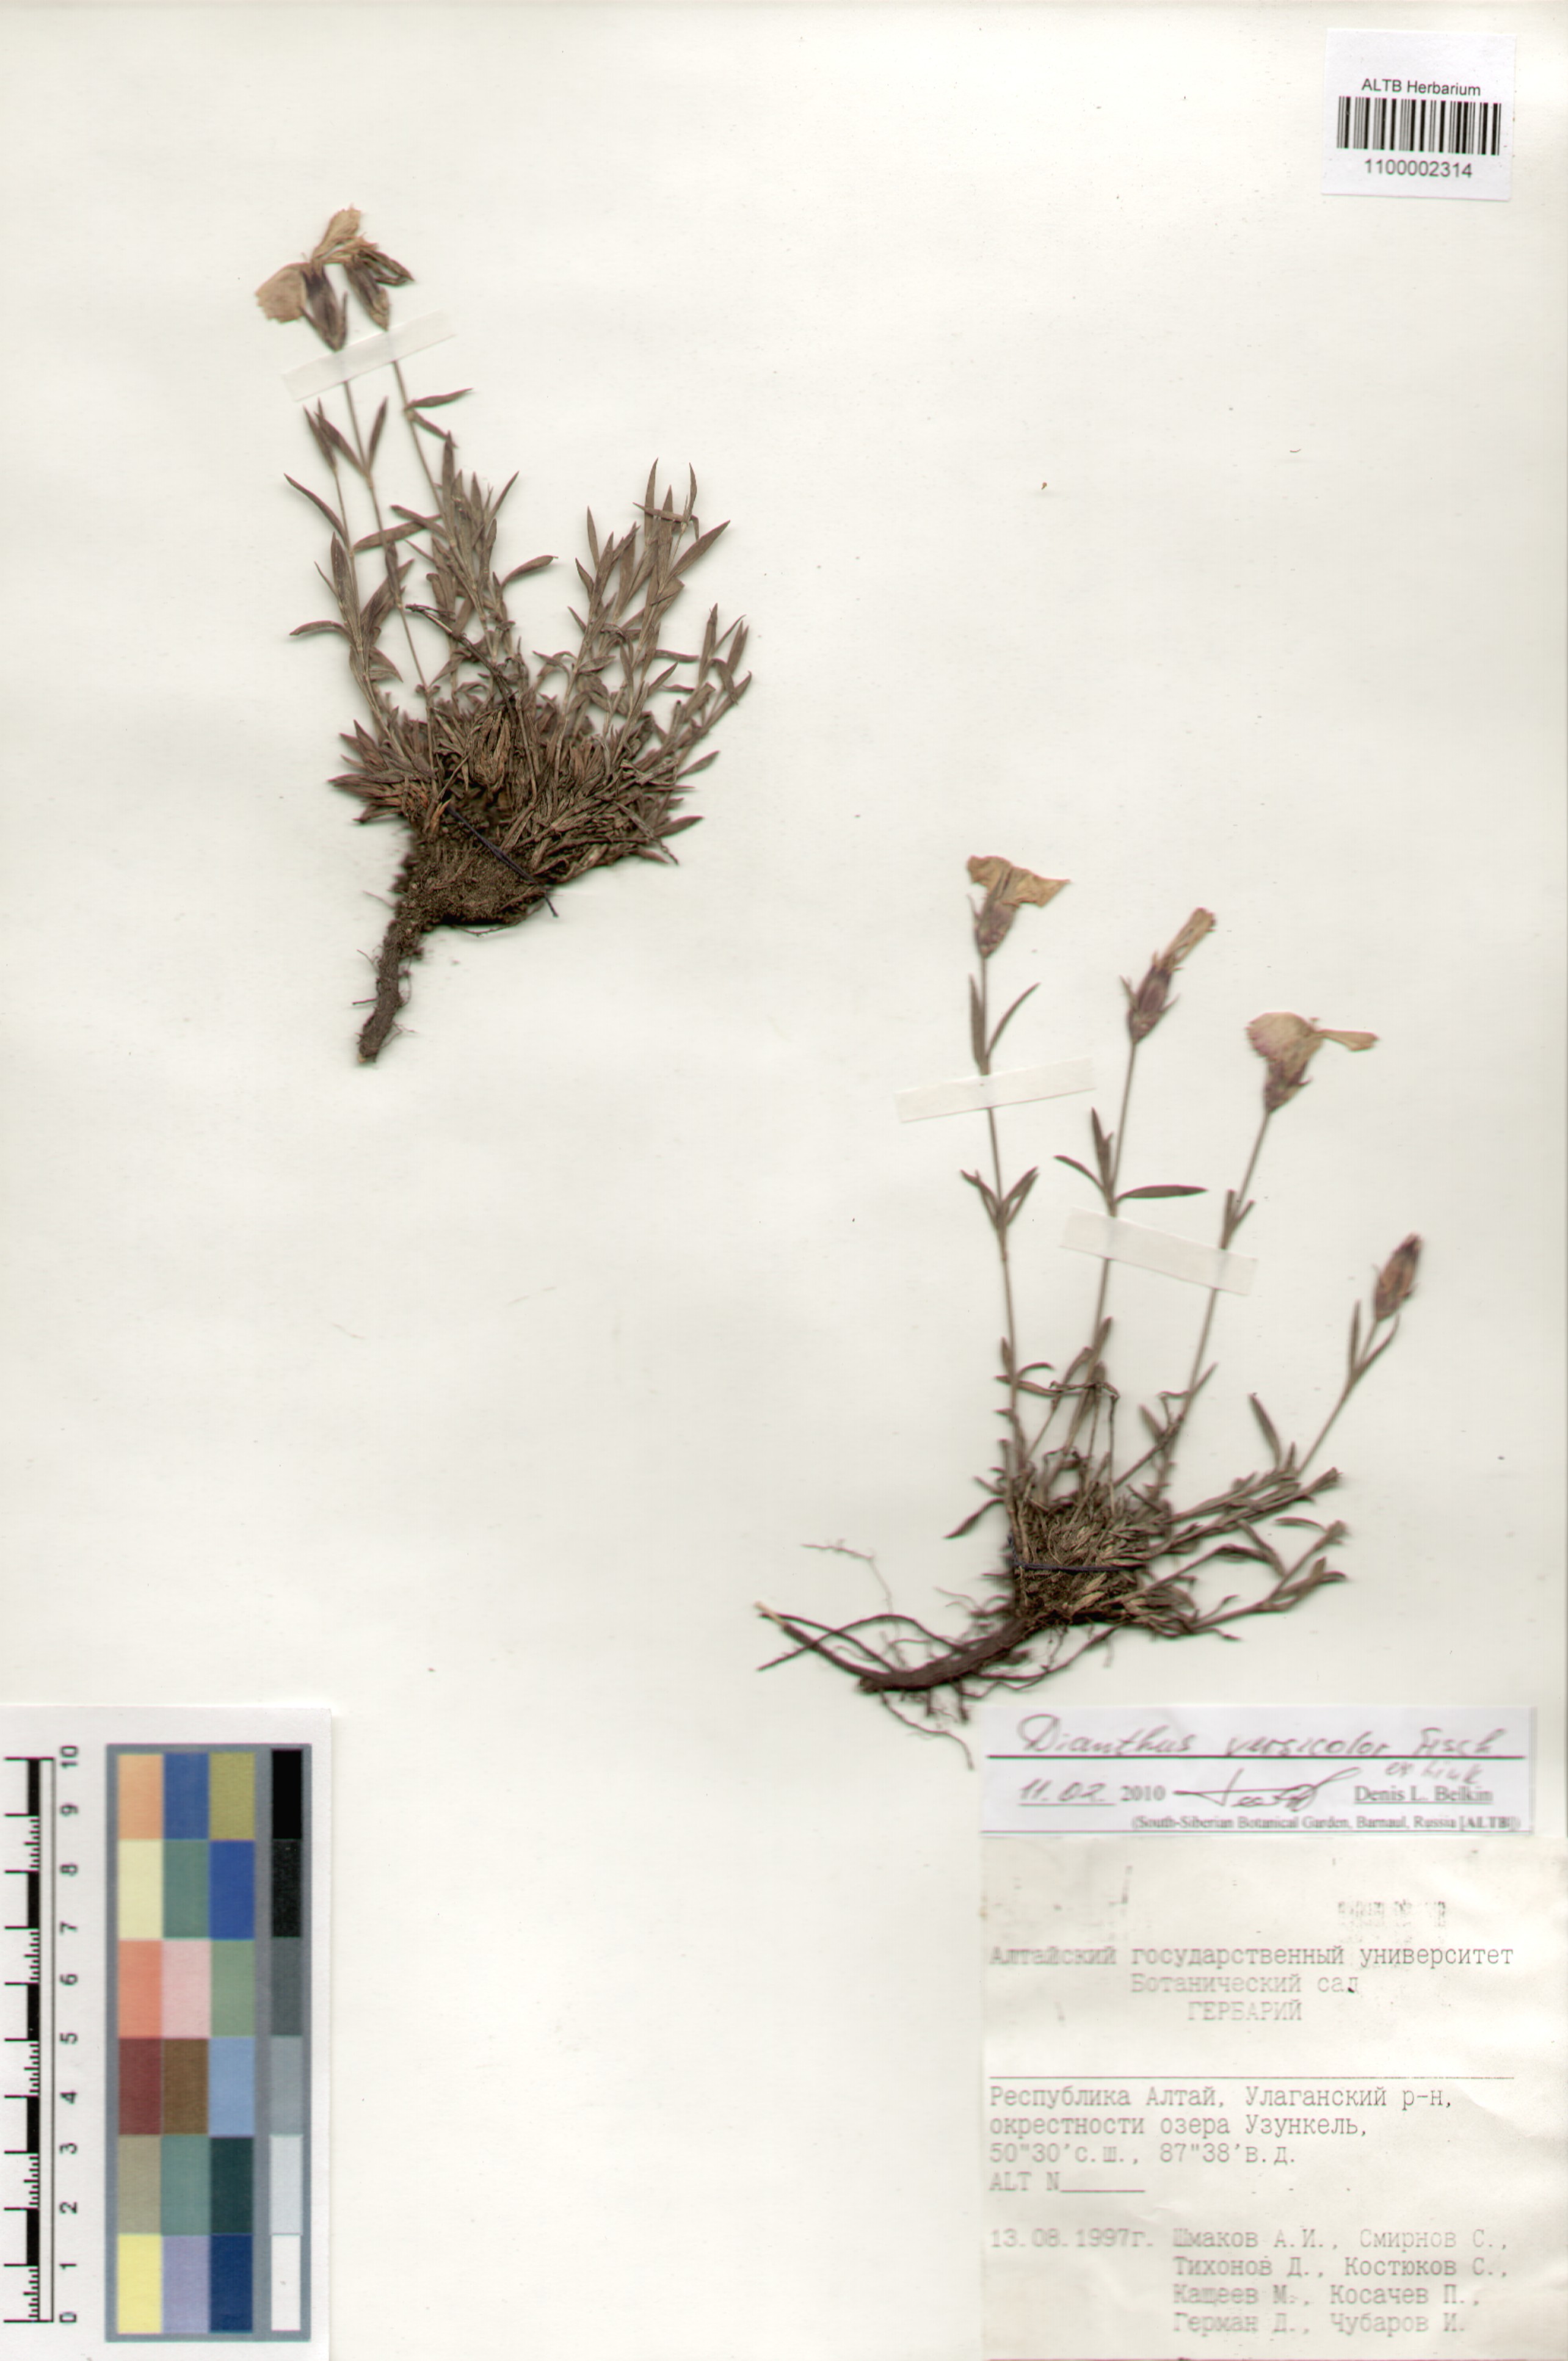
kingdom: Plantae
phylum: Tracheophyta
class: Magnoliopsida
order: Caryophyllales
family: Caryophyllaceae
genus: Dianthus
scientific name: Dianthus chinensis
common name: Rainbow pink
